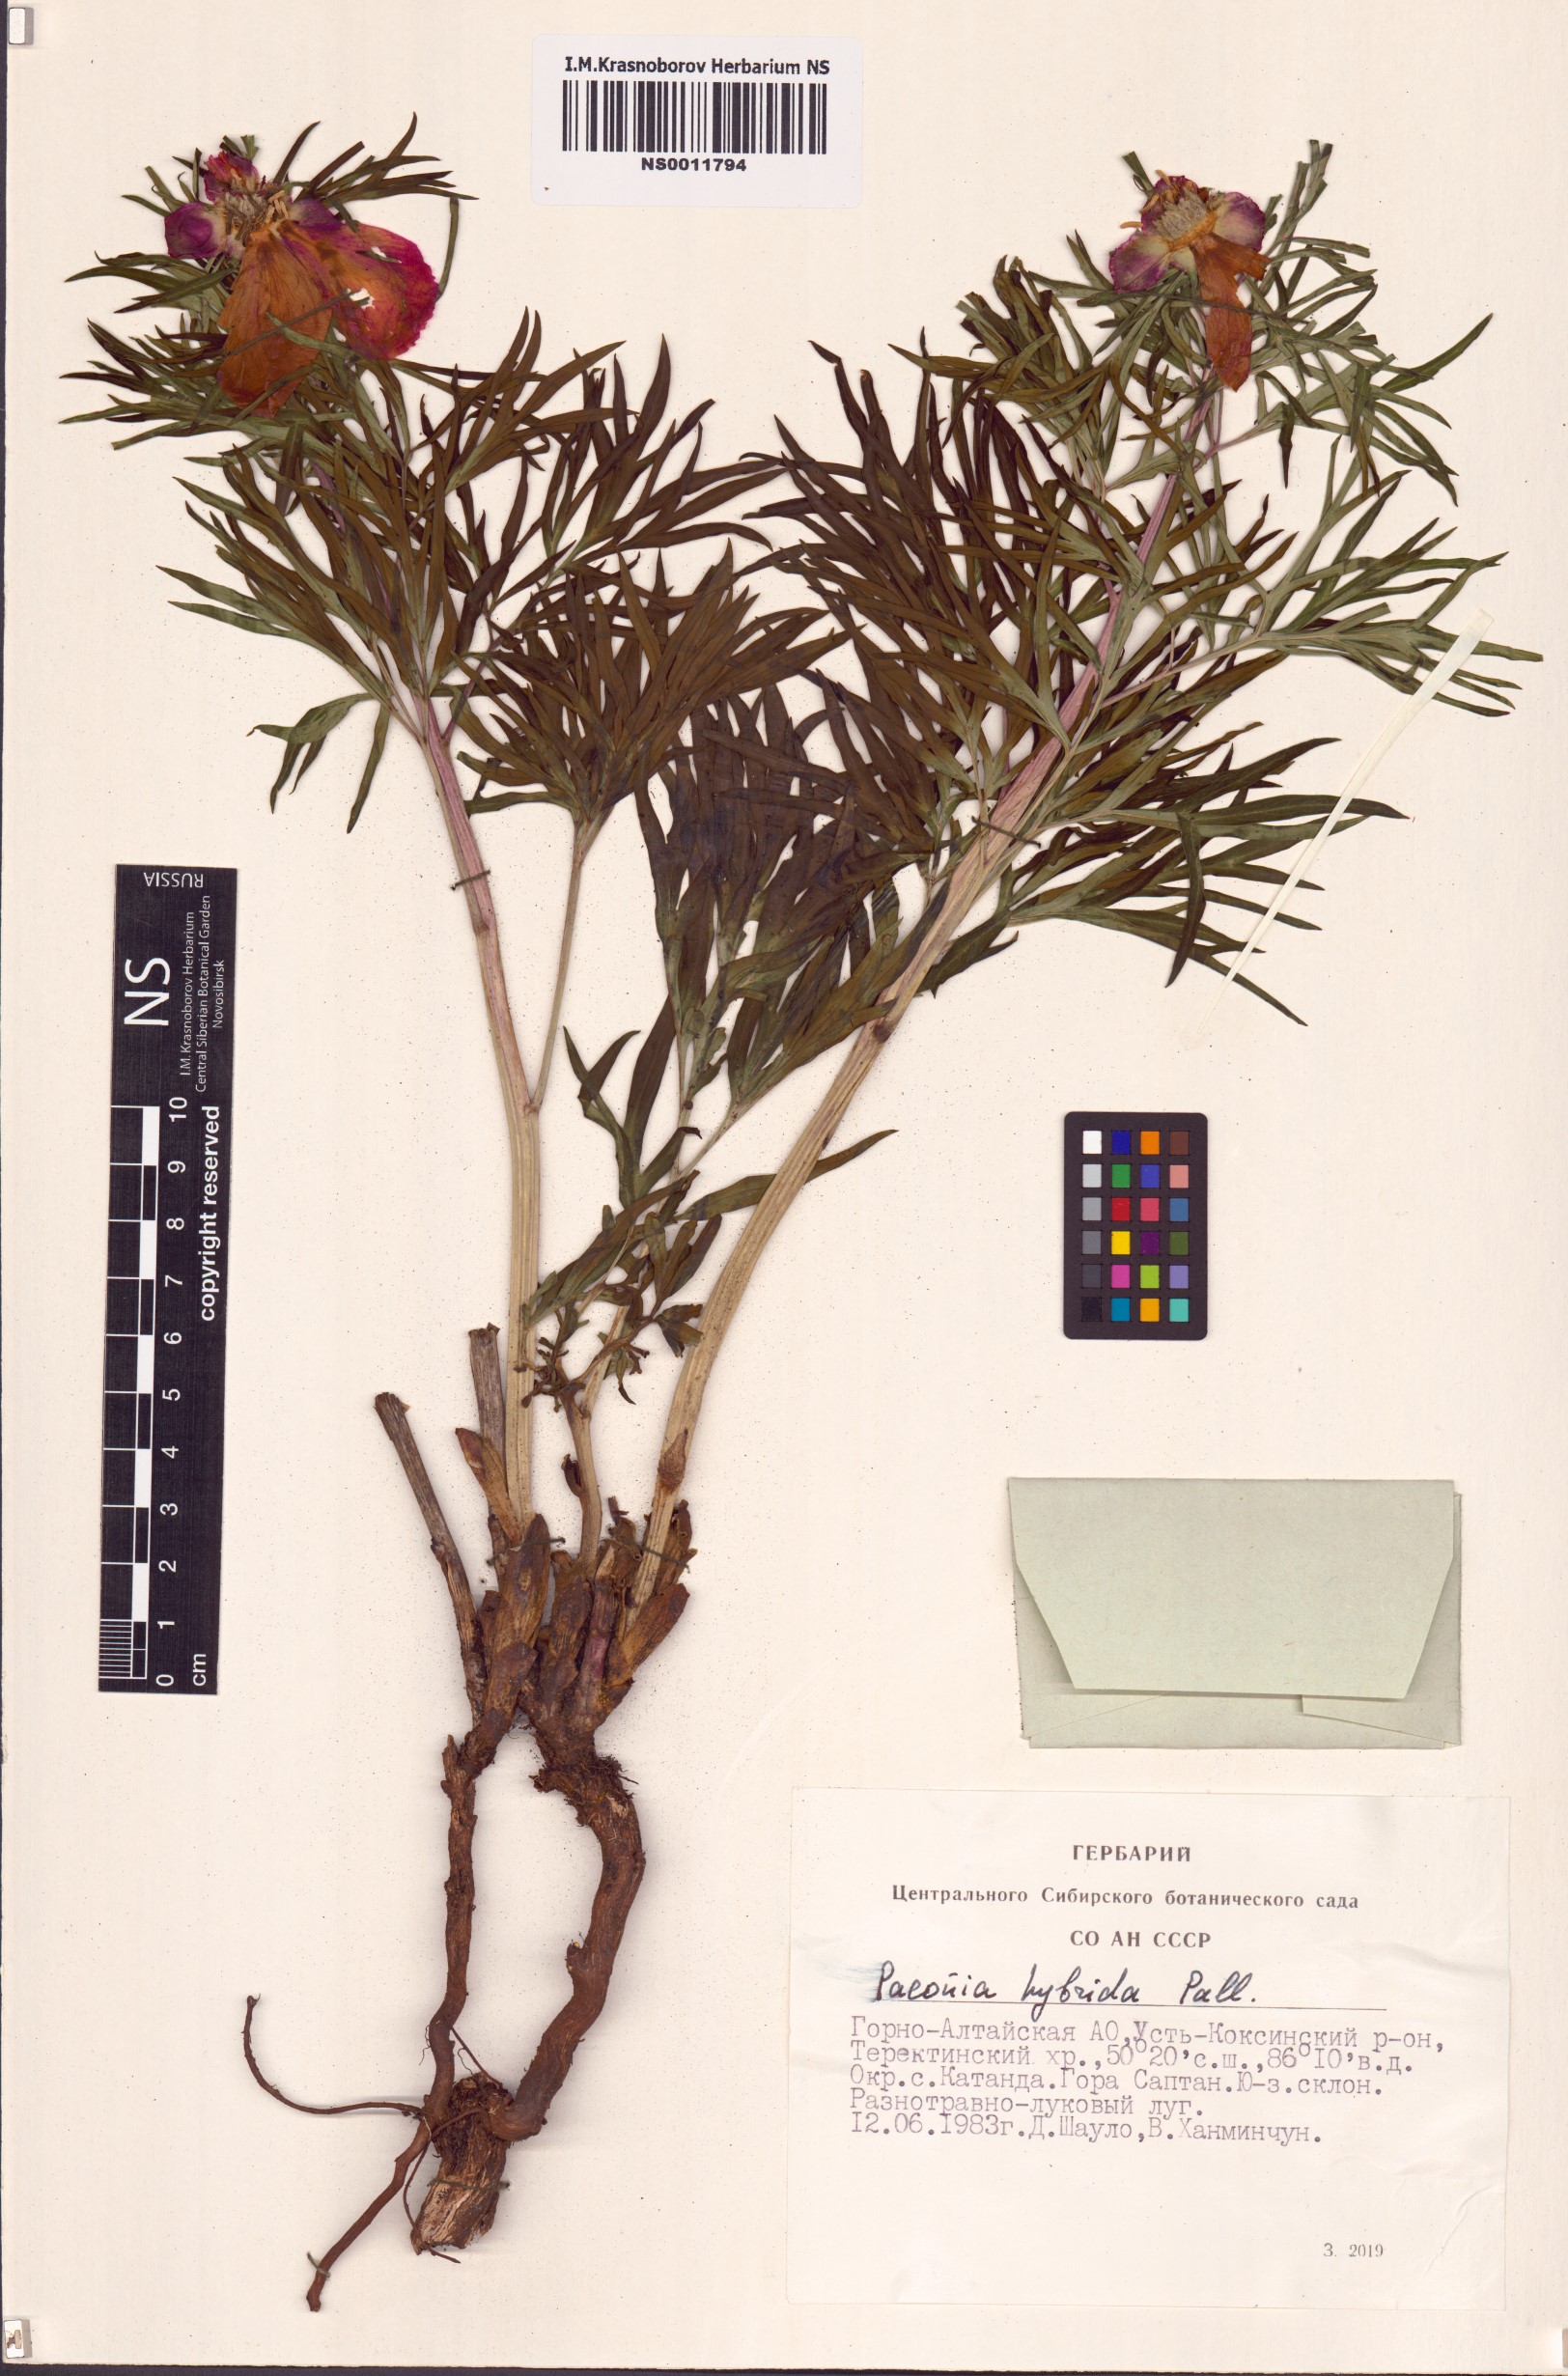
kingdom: Plantae
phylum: Tracheophyta
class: Magnoliopsida
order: Saxifragales
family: Paeoniaceae
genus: Paeonia
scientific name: Paeonia
